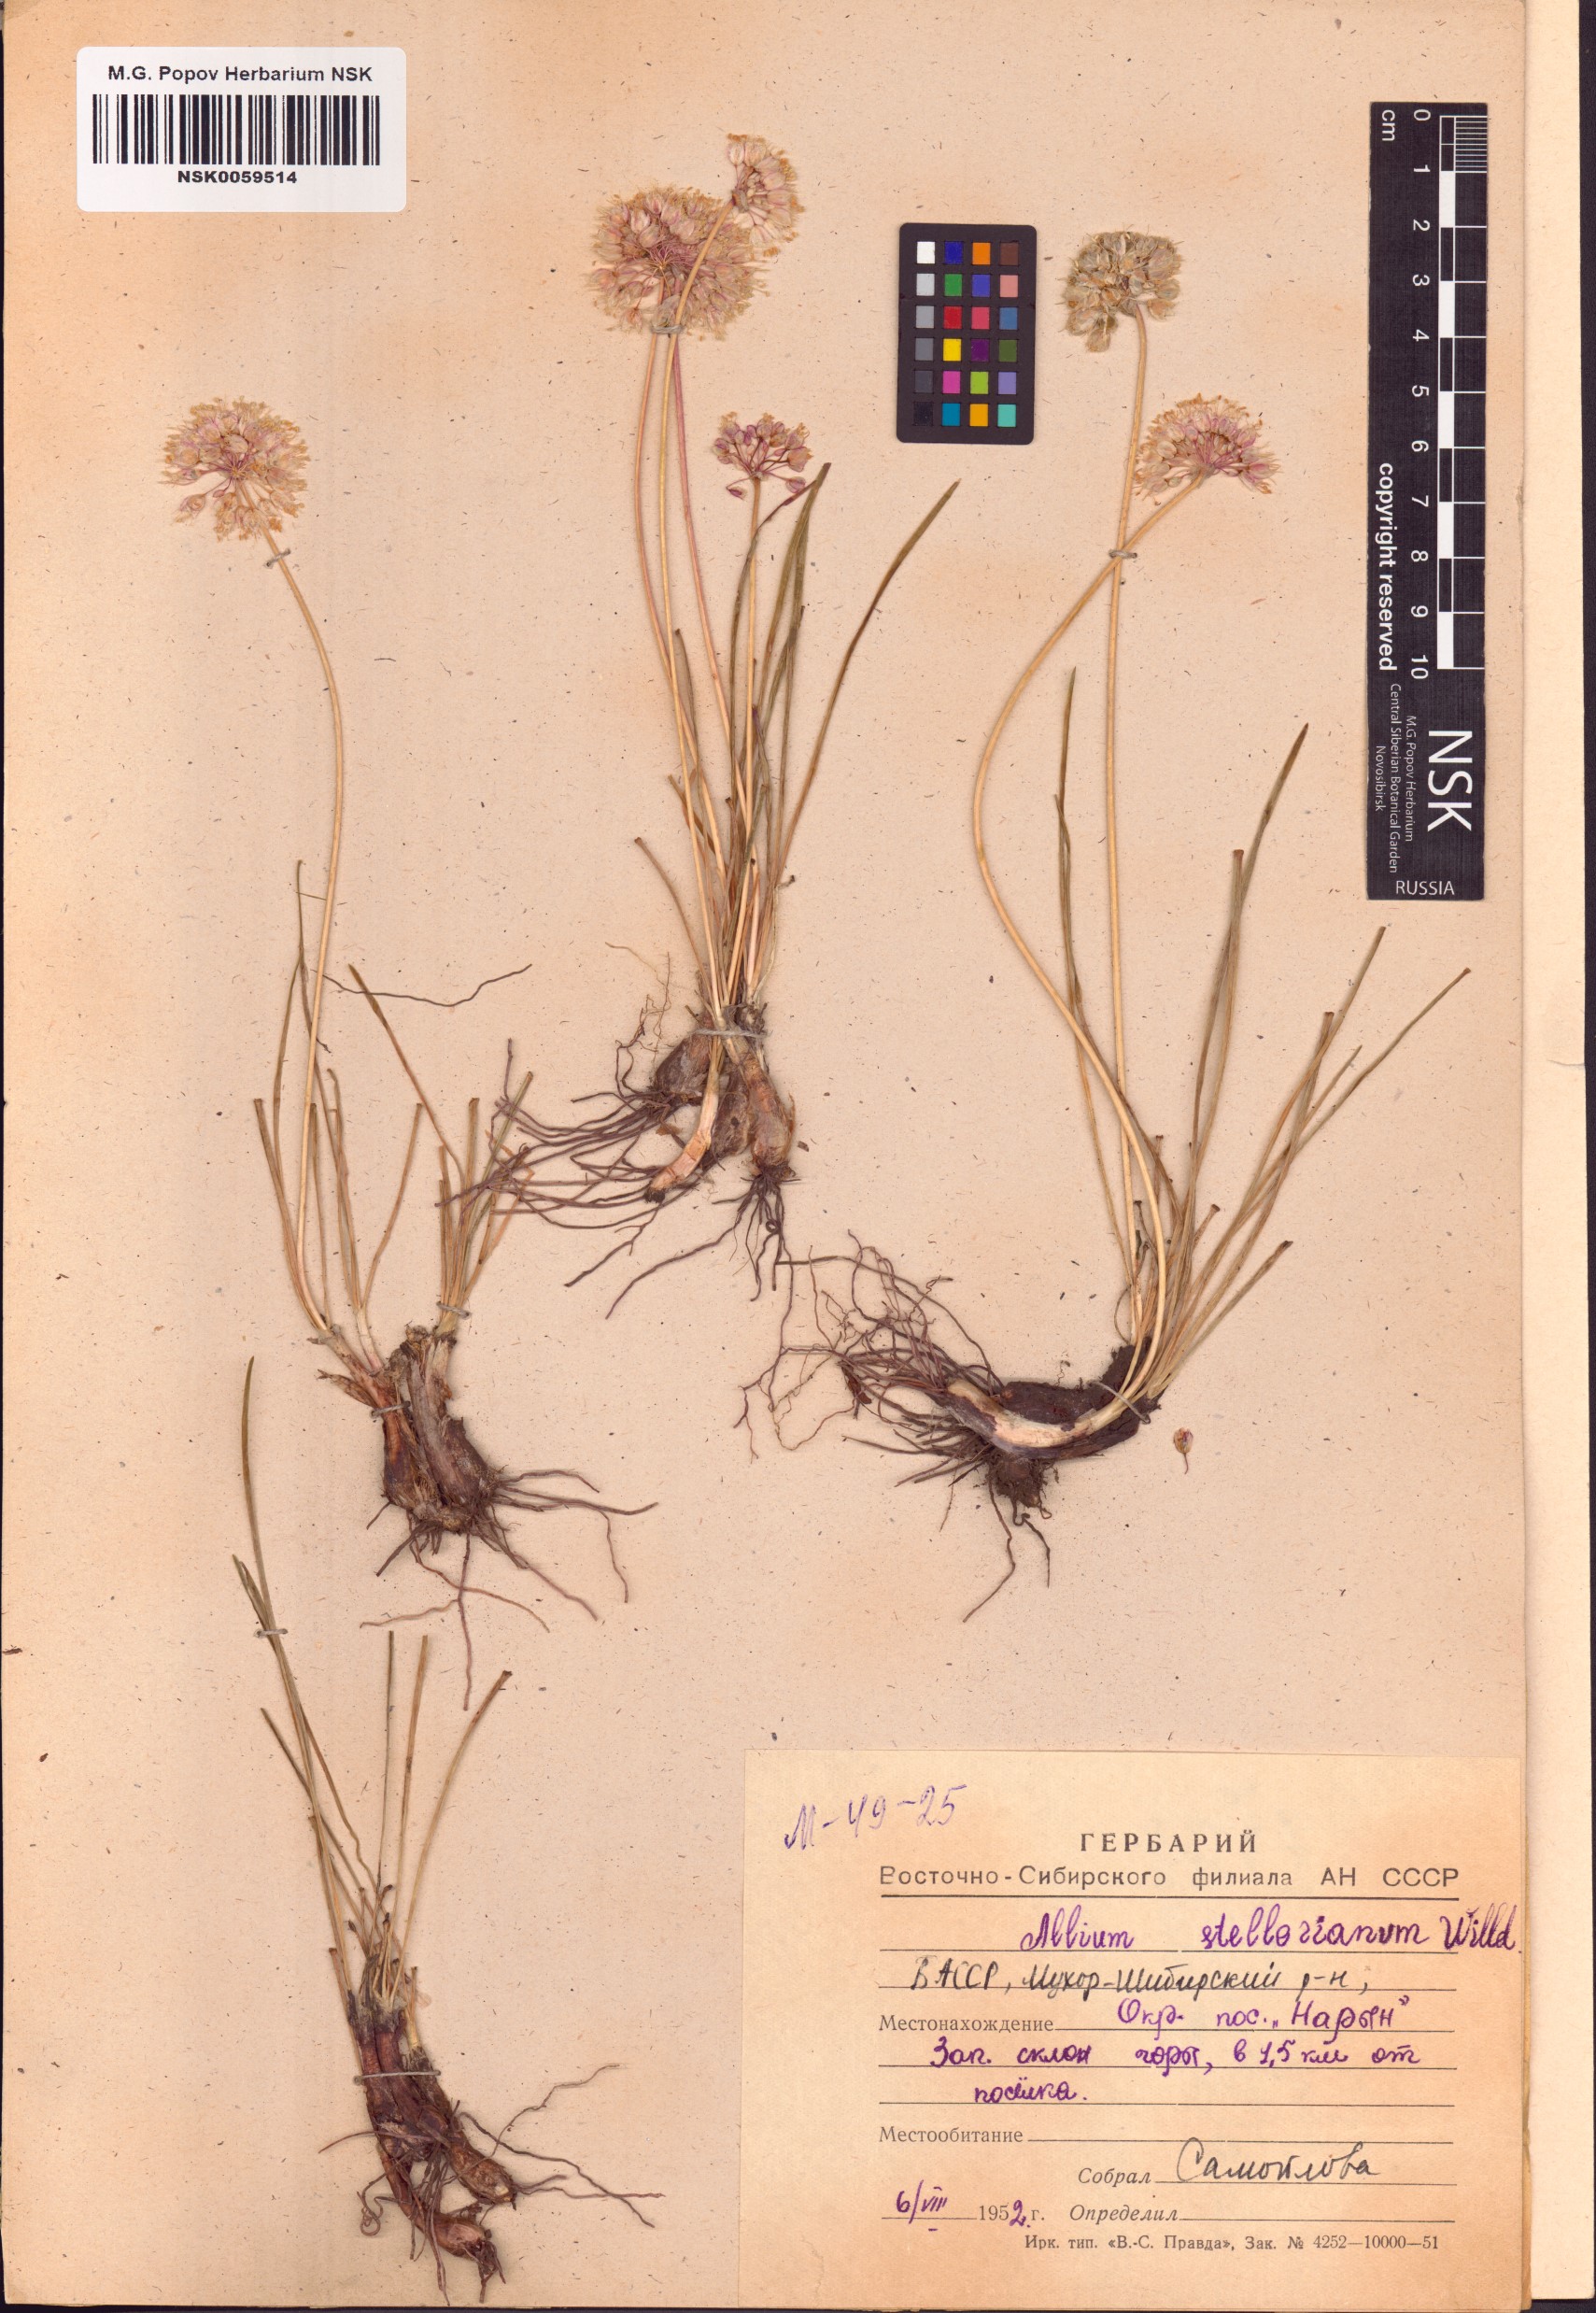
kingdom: Plantae
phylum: Tracheophyta
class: Liliopsida
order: Asparagales
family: Amaryllidaceae
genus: Allium
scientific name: Allium stellerianum
